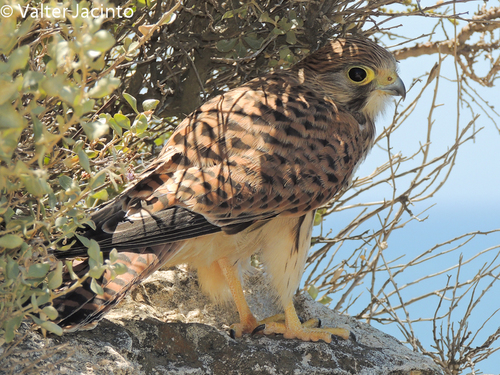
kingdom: Animalia
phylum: Chordata
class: Aves
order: Falconiformes
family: Falconidae
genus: Falco
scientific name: Falco tinnunculus
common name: Common kestrel
